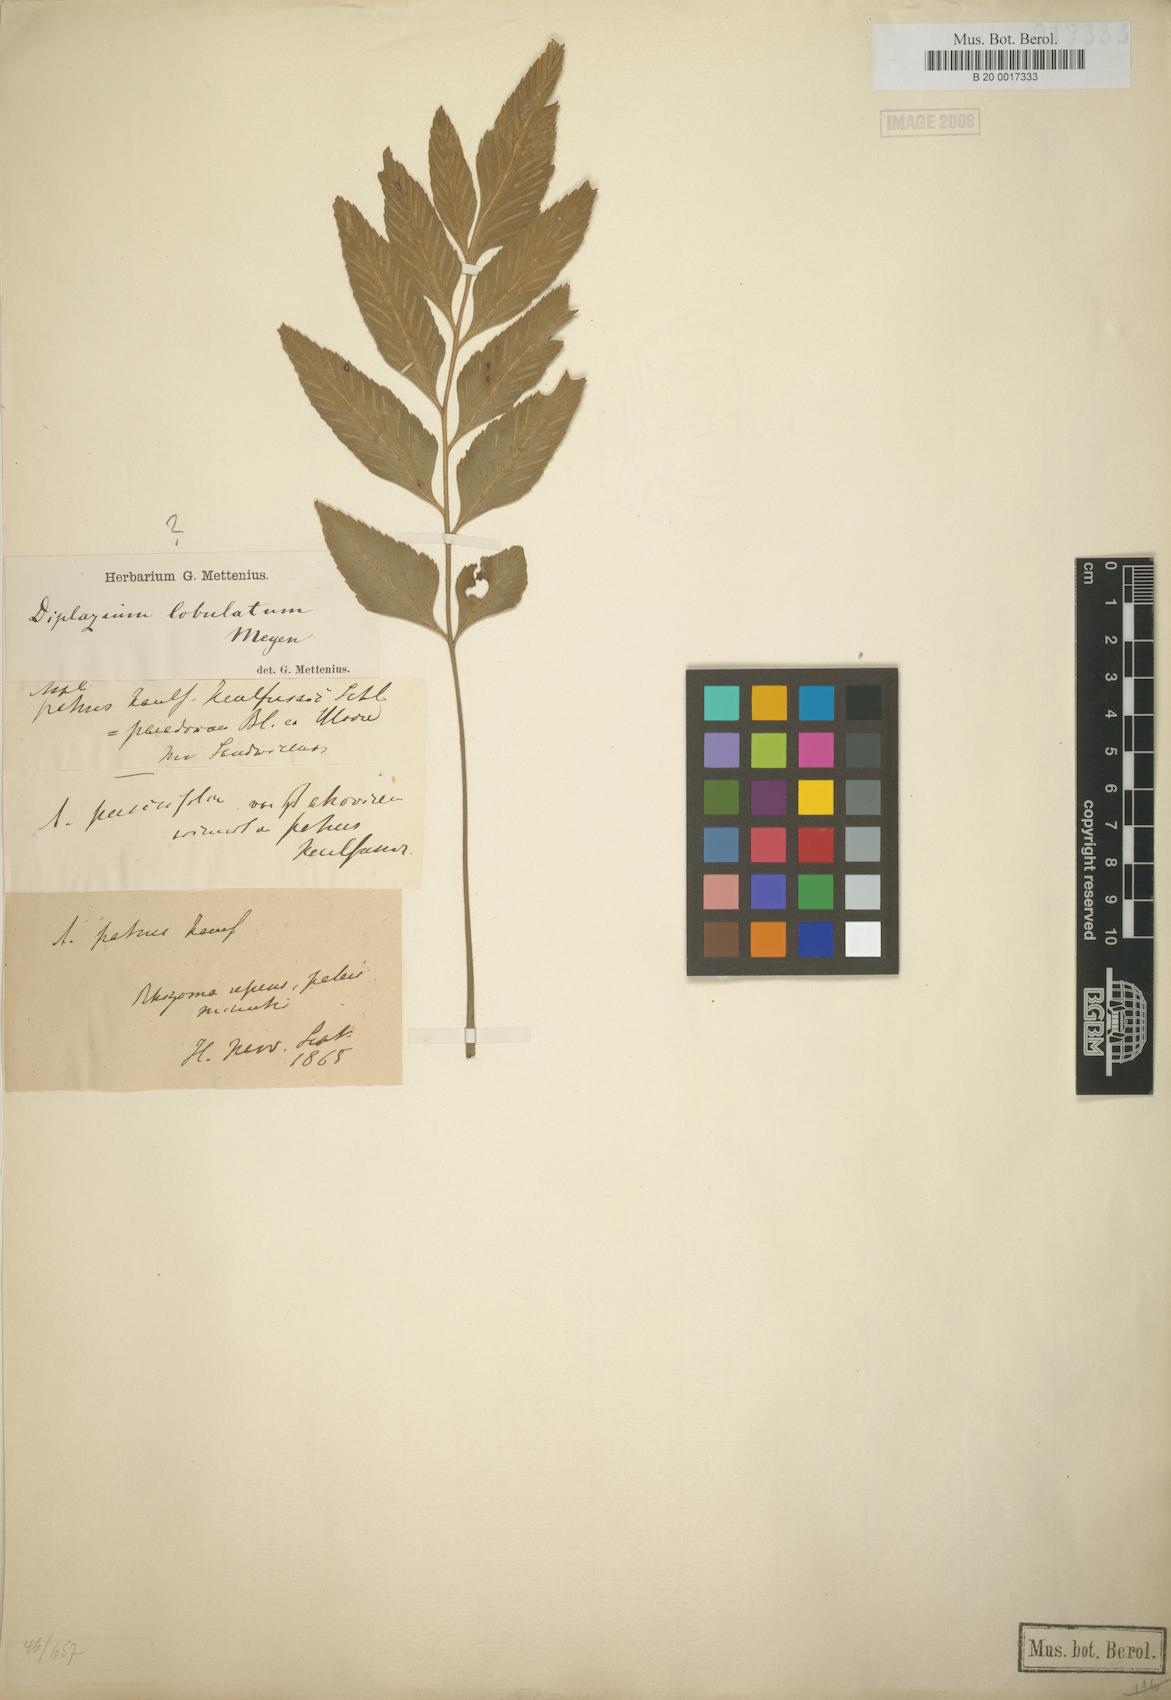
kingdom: Plantae
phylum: Tracheophyta
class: Polypodiopsida
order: Polypodiales
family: Aspleniaceae
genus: Asplenium
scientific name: Asplenium lobulatum
